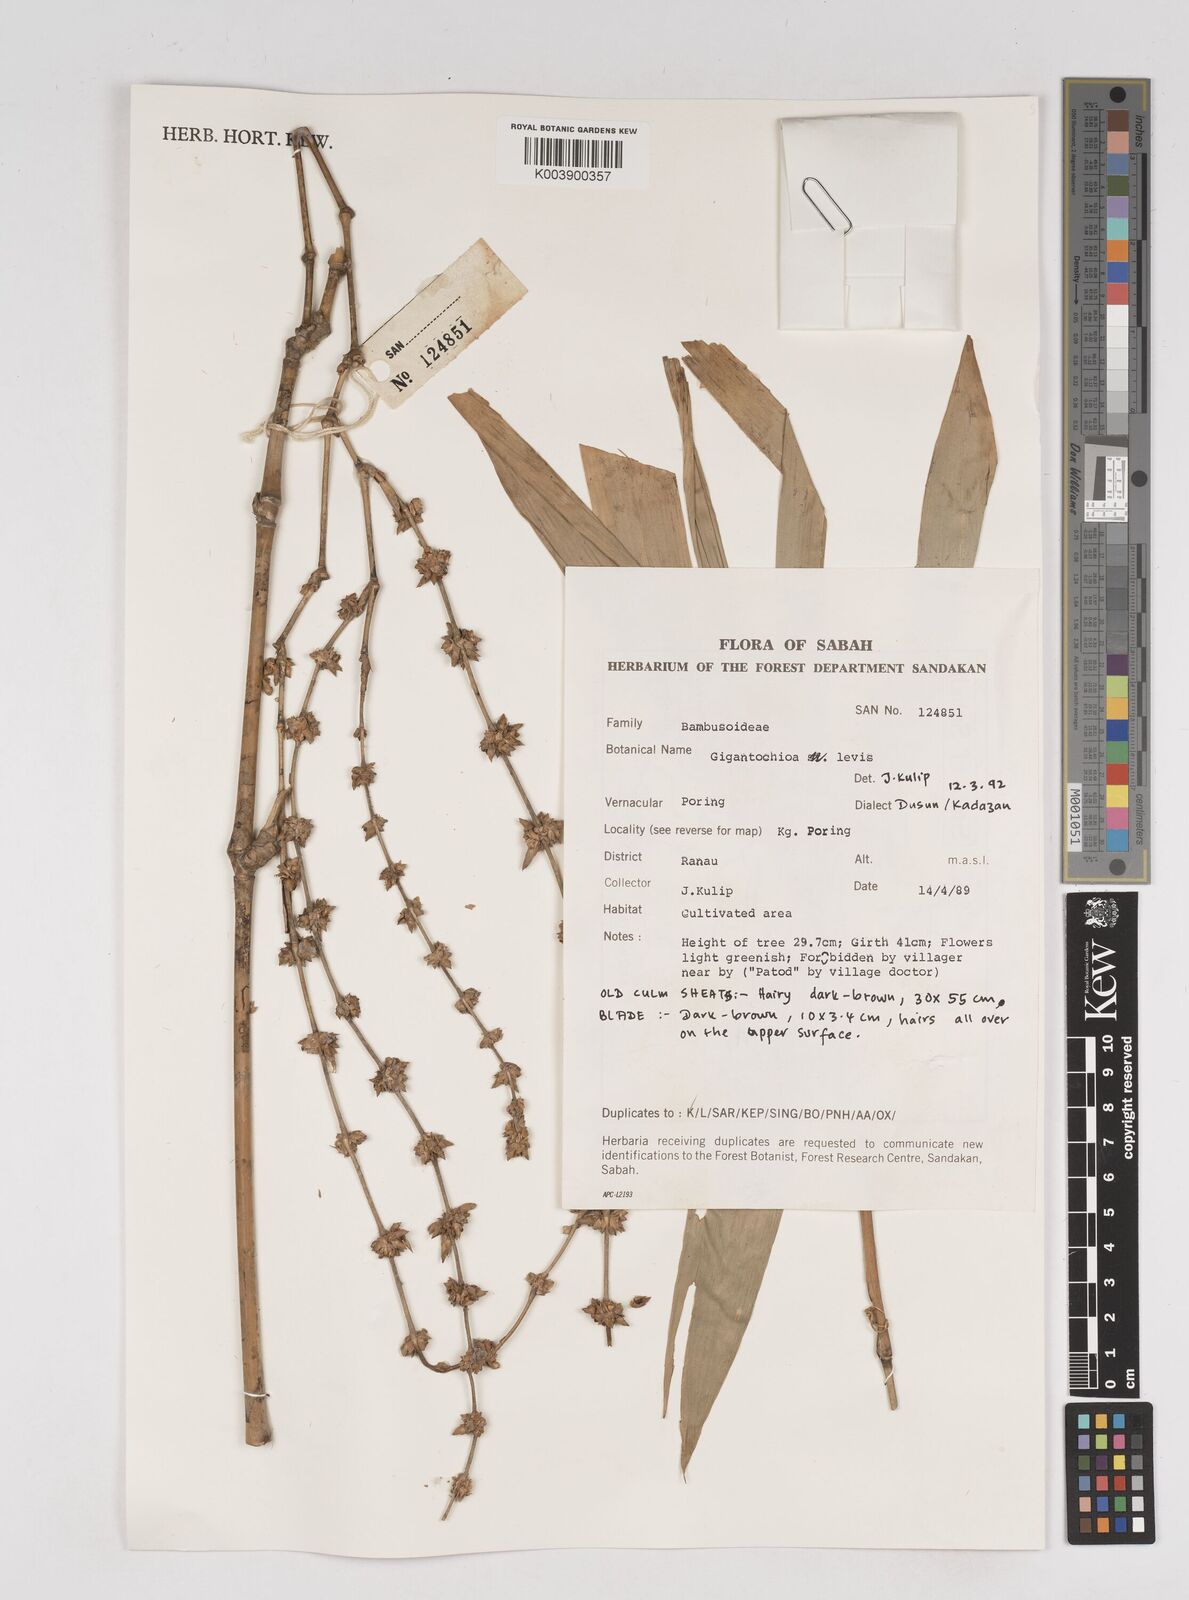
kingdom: Plantae
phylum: Tracheophyta
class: Liliopsida
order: Poales
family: Poaceae
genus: Gigantochloa
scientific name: Gigantochloa levis
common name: Smooth-shoot gigantochloa
